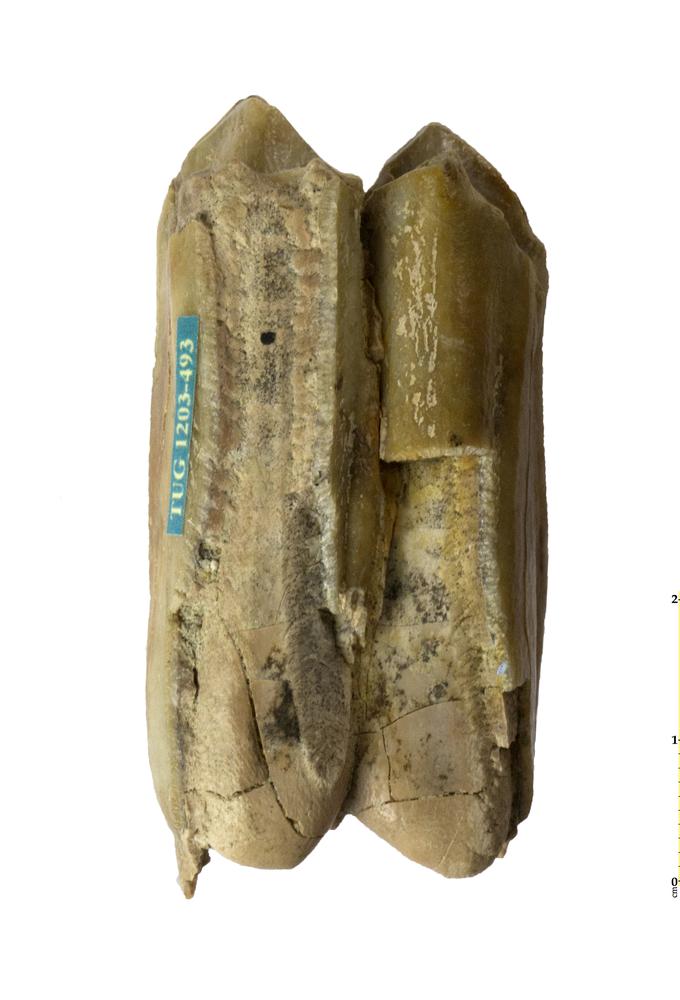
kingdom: Animalia
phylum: Chordata
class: Mammalia
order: Artiodactyla
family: Bovidae
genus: Bos
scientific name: Bos
